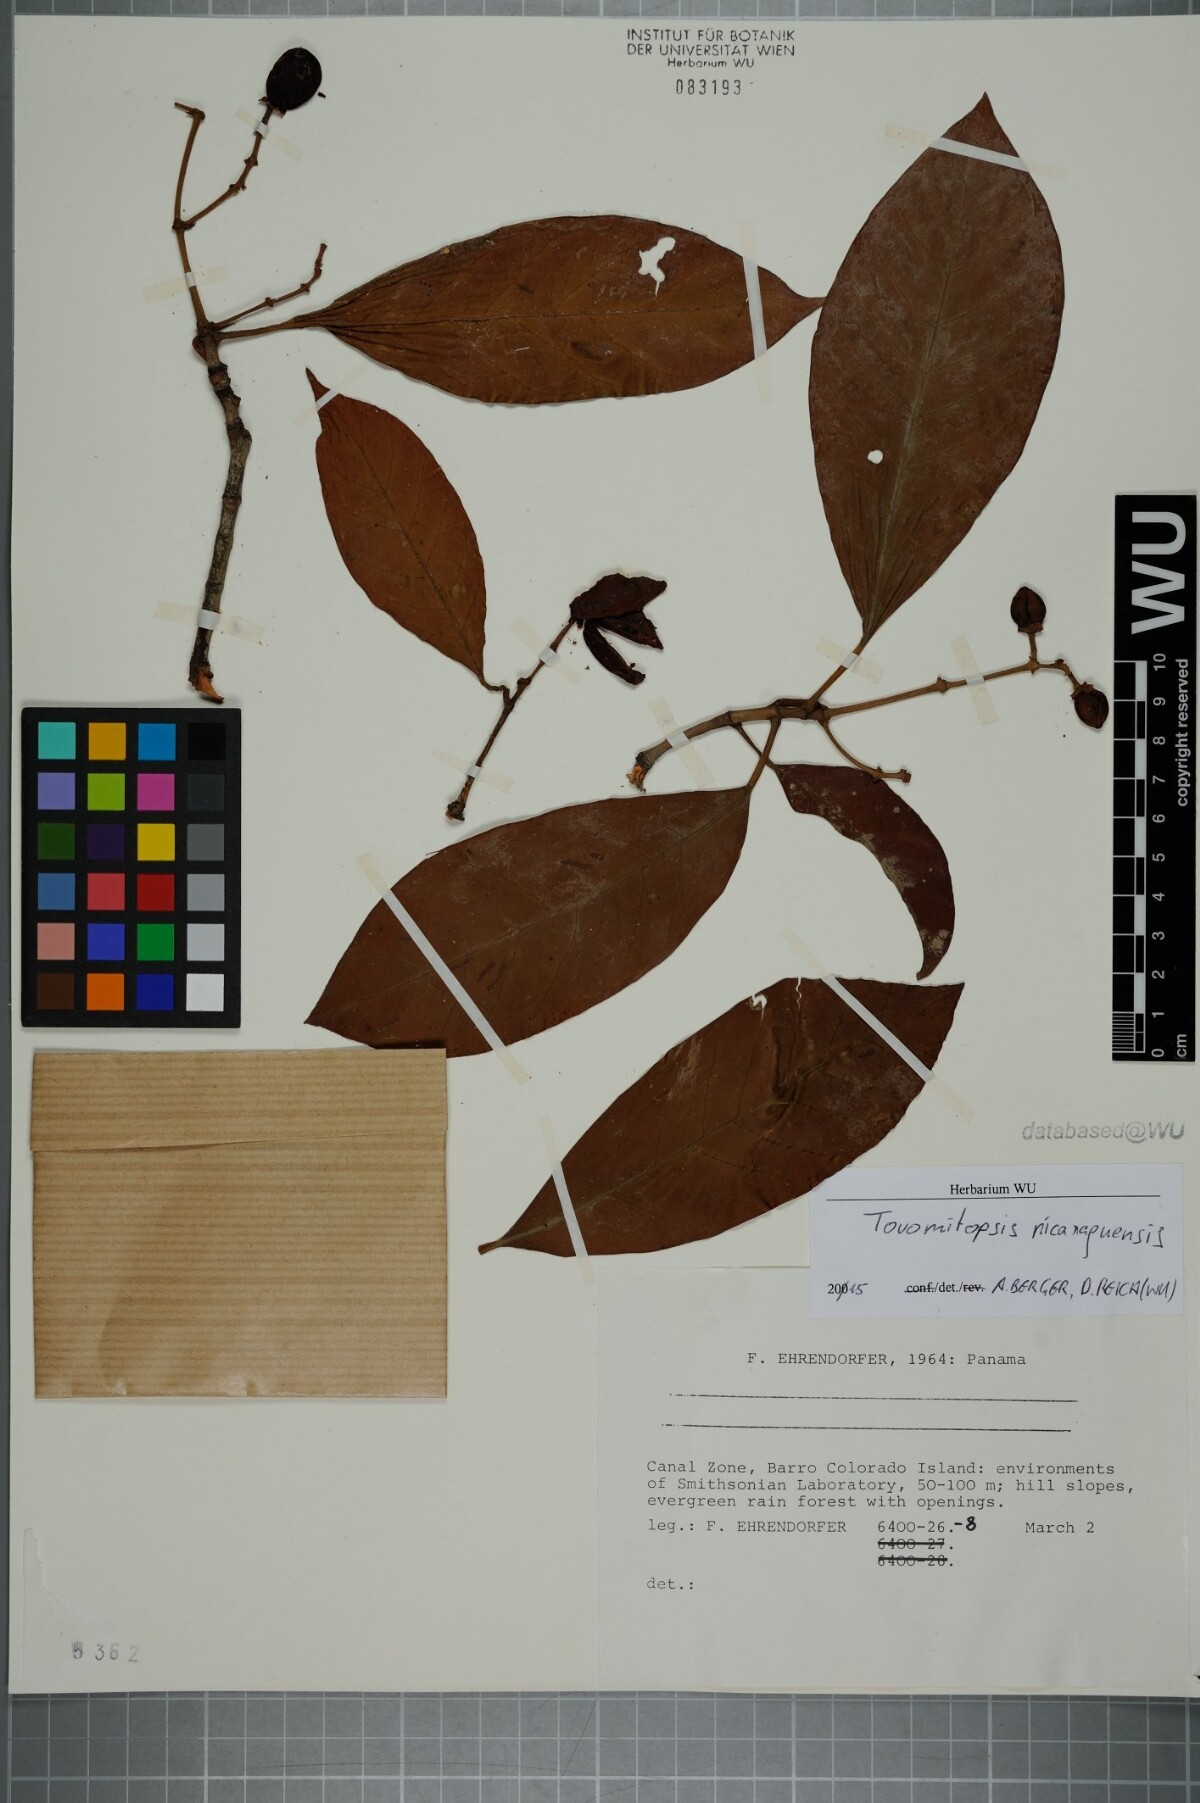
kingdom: Plantae
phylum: Tracheophyta
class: Magnoliopsida
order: Malpighiales
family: Clusiaceae
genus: Chrysochlamys
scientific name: Chrysochlamys nicaraguensis
